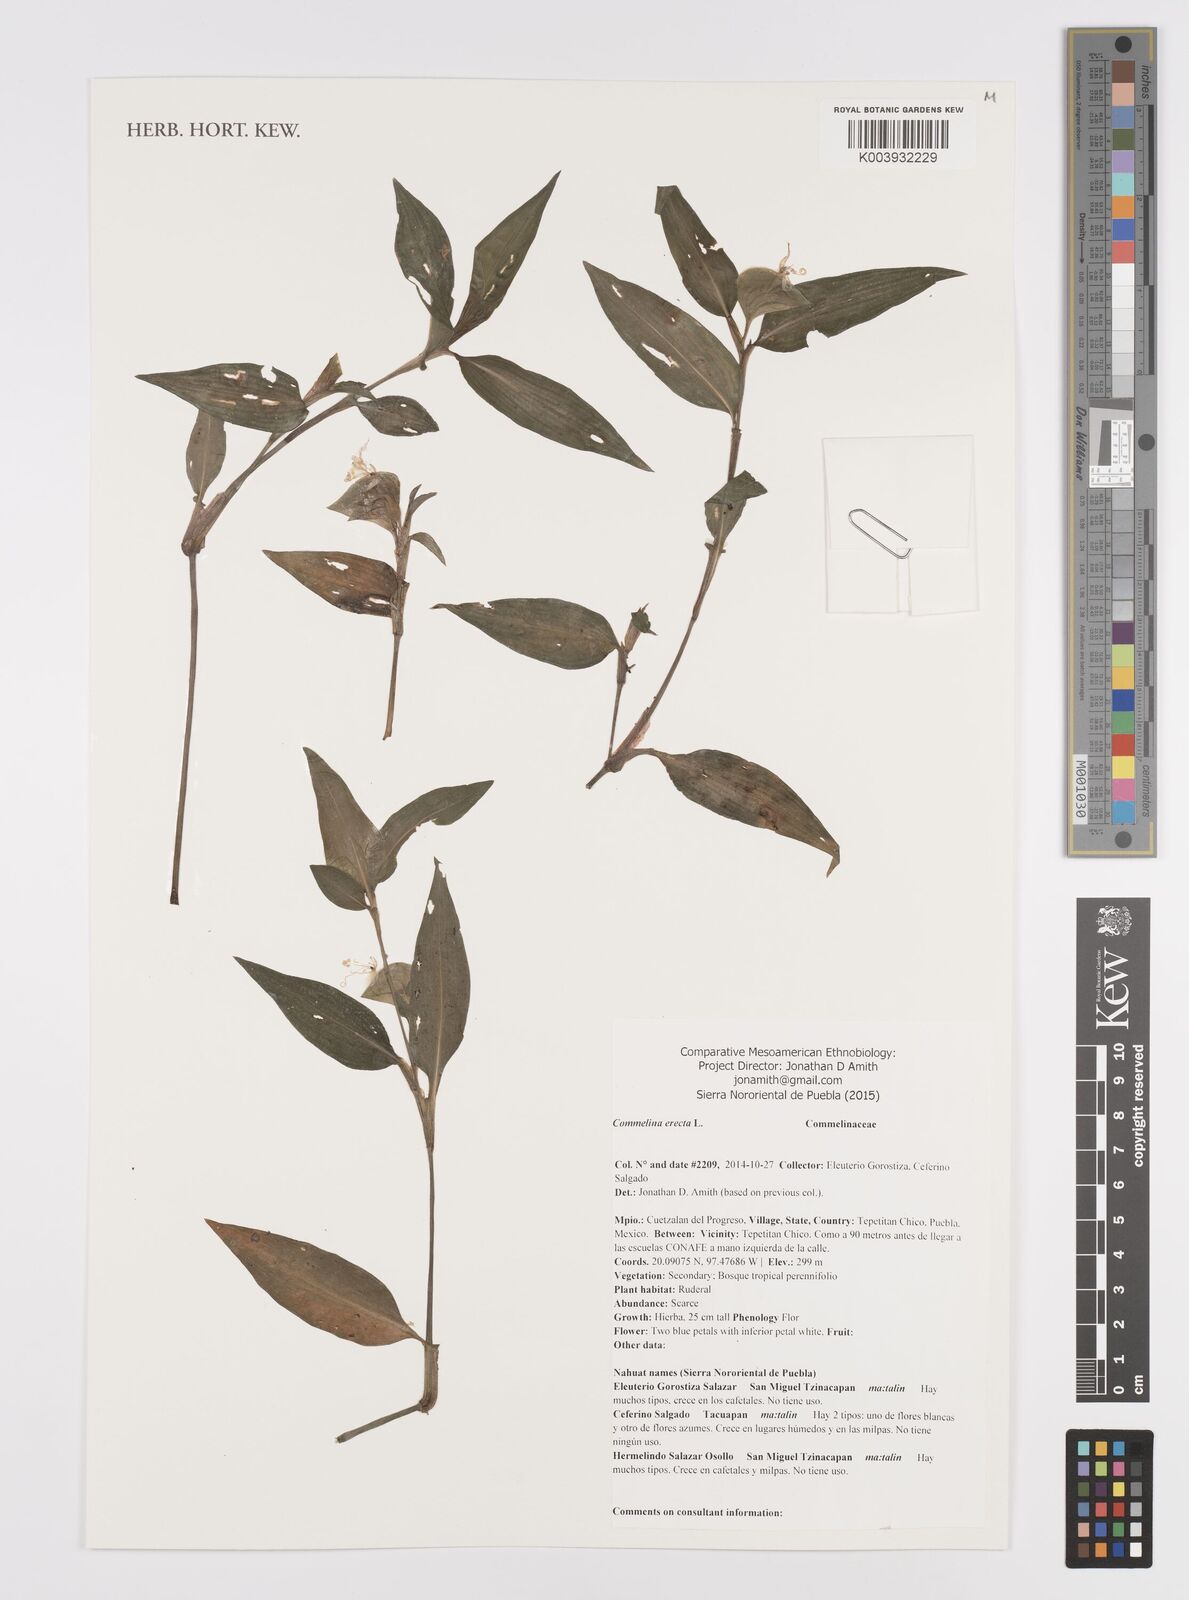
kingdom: Plantae
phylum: Tracheophyta
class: Liliopsida
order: Commelinales
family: Commelinaceae
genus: Commelina
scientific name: Commelina erecta
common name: Blousel blommetjie
